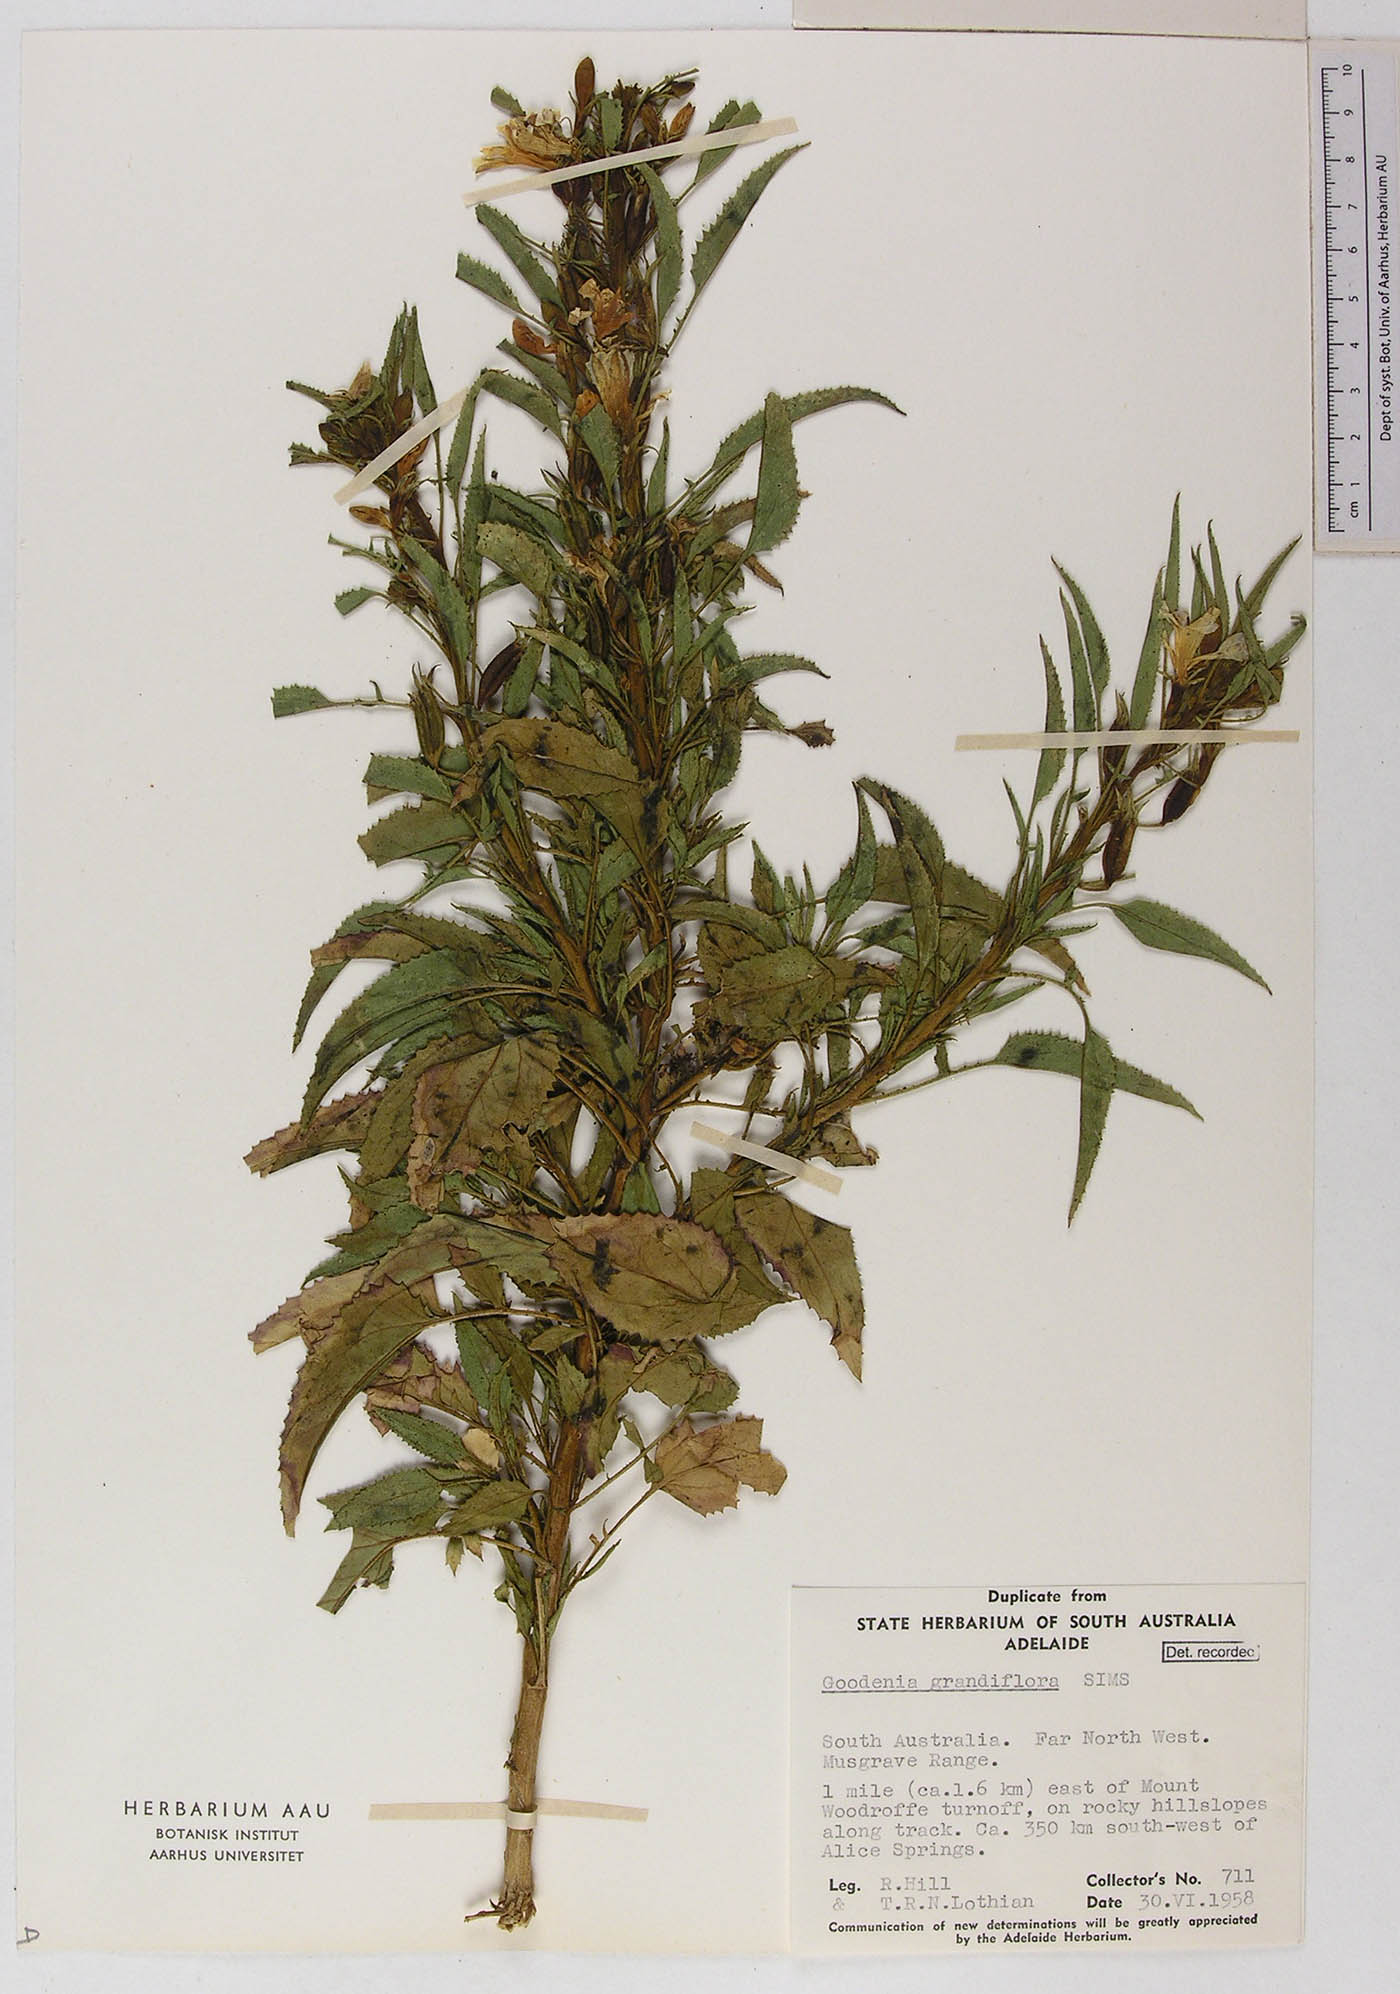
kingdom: Plantae
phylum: Tracheophyta
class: Magnoliopsida
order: Asterales
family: Goodeniaceae
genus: Goodenia
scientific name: Goodenia grandiflora
